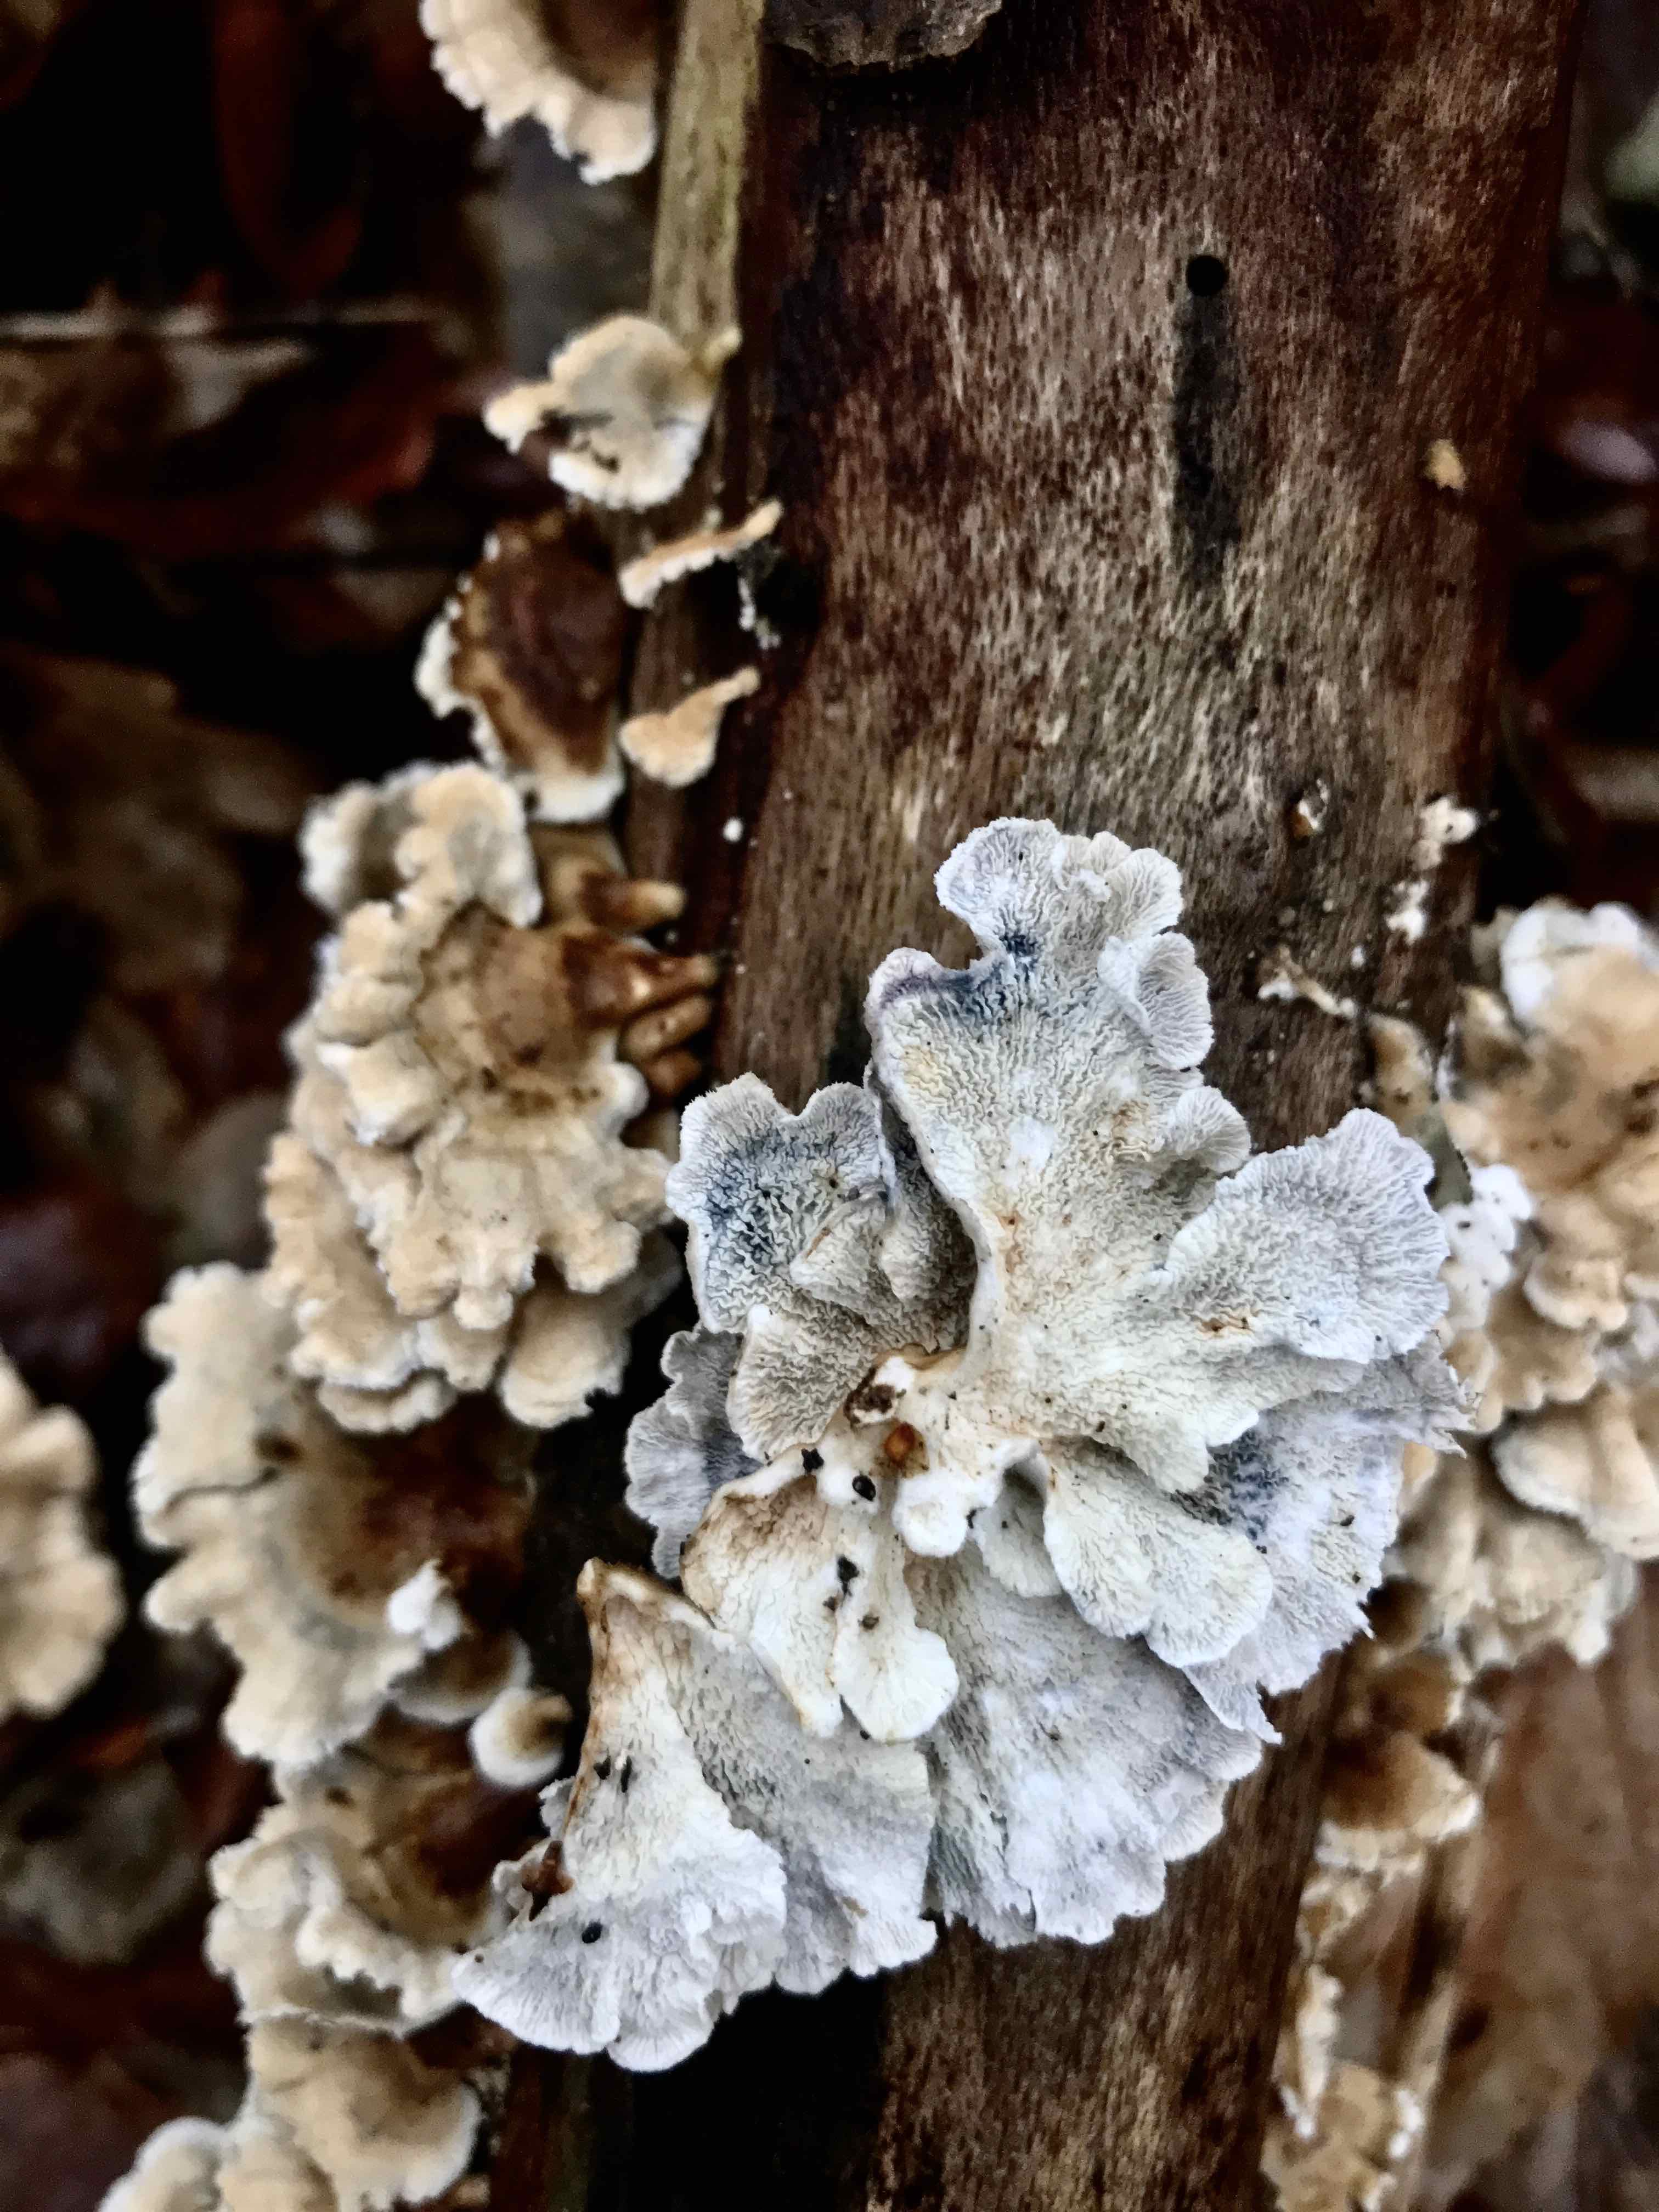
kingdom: Fungi
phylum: Basidiomycota
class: Agaricomycetes
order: Amylocorticiales
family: Amylocorticiaceae
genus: Plicaturopsis
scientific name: Plicaturopsis crispa
